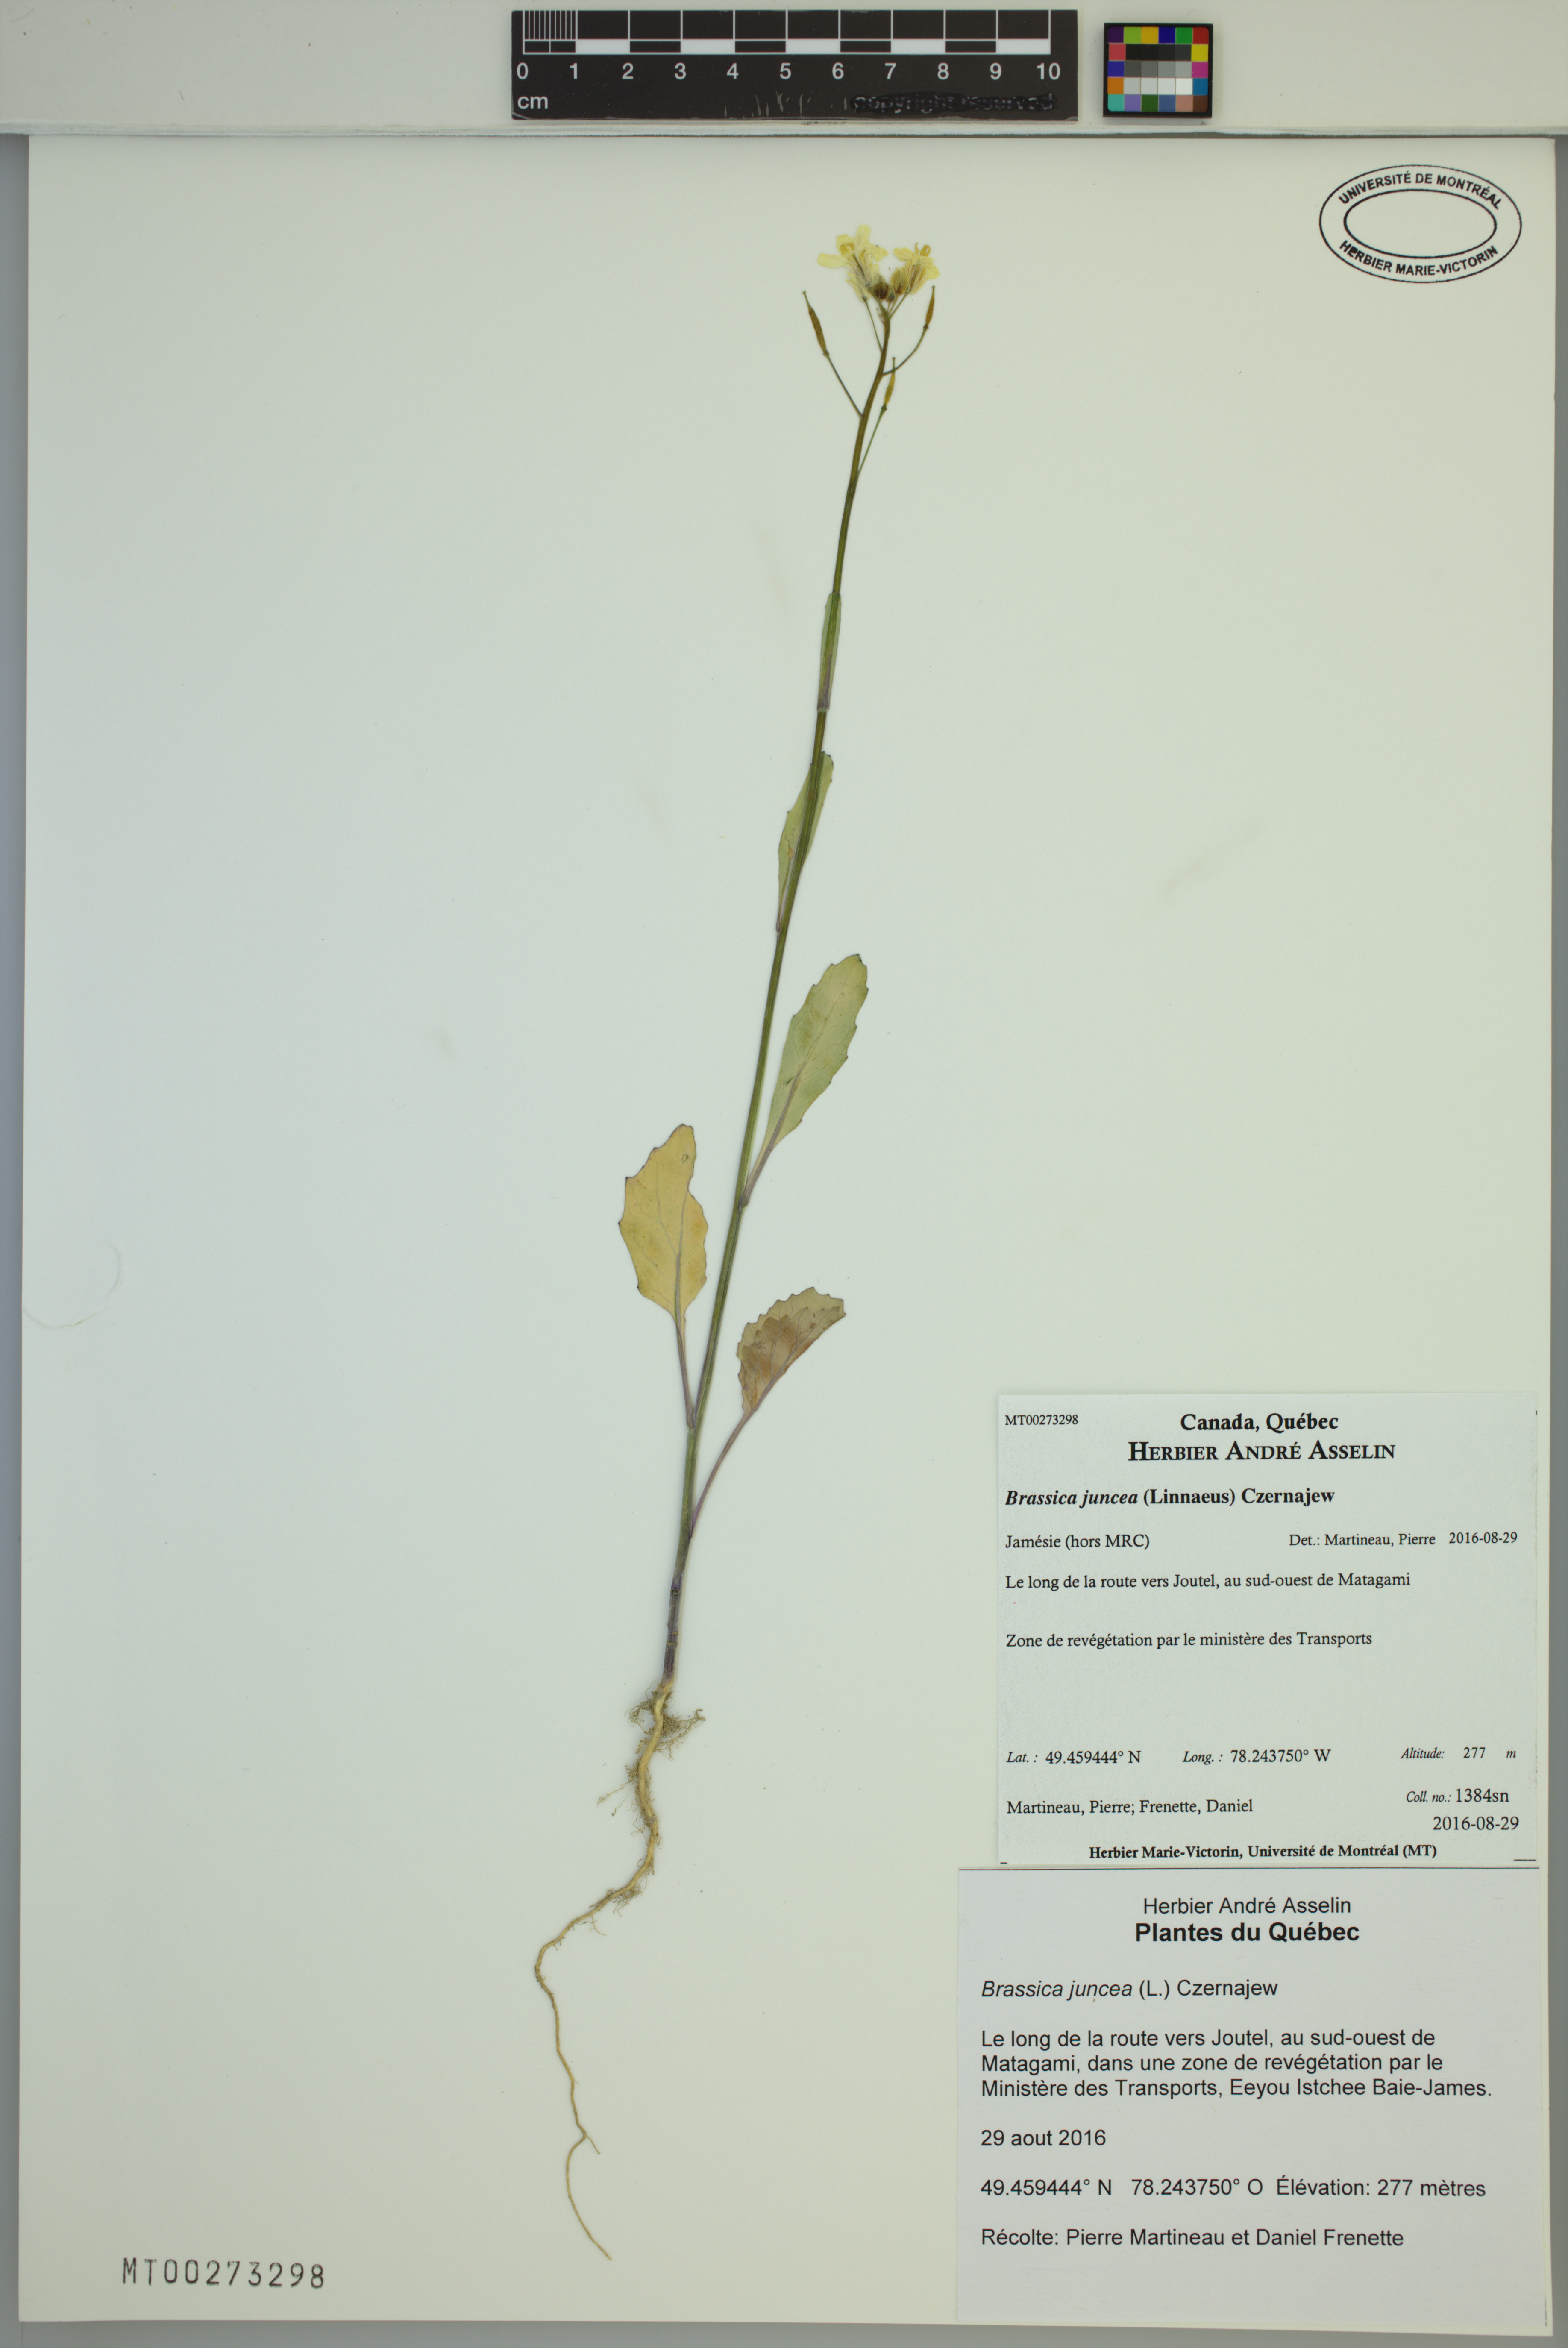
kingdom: Plantae
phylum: Tracheophyta
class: Magnoliopsida
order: Brassicales
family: Brassicaceae
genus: Brassica
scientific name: Brassica juncea
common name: Brown mustard
